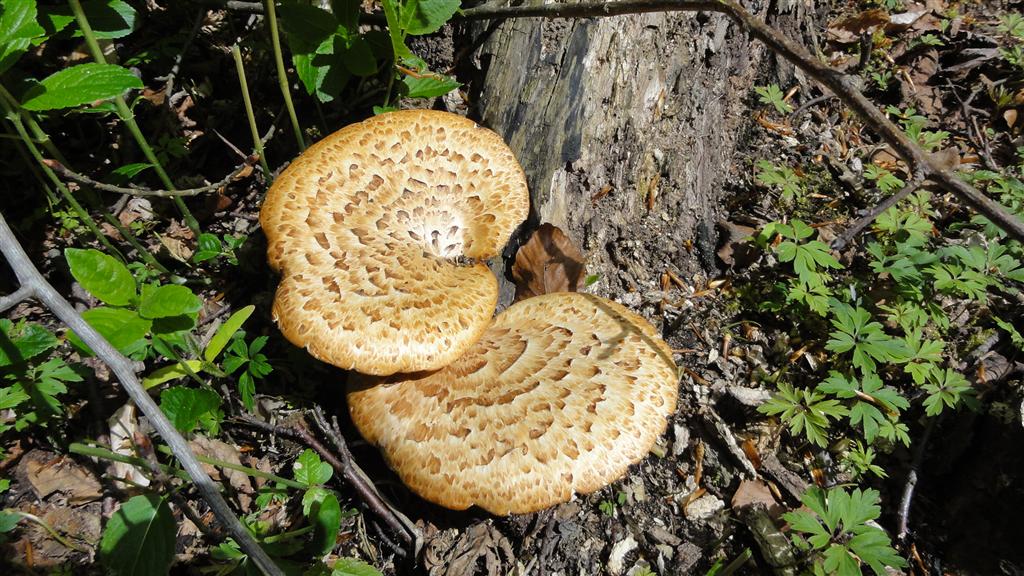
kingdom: Fungi
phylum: Basidiomycota
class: Agaricomycetes
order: Polyporales
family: Polyporaceae
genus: Cerioporus
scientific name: Cerioporus squamosus
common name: skællet stilkporesvamp
